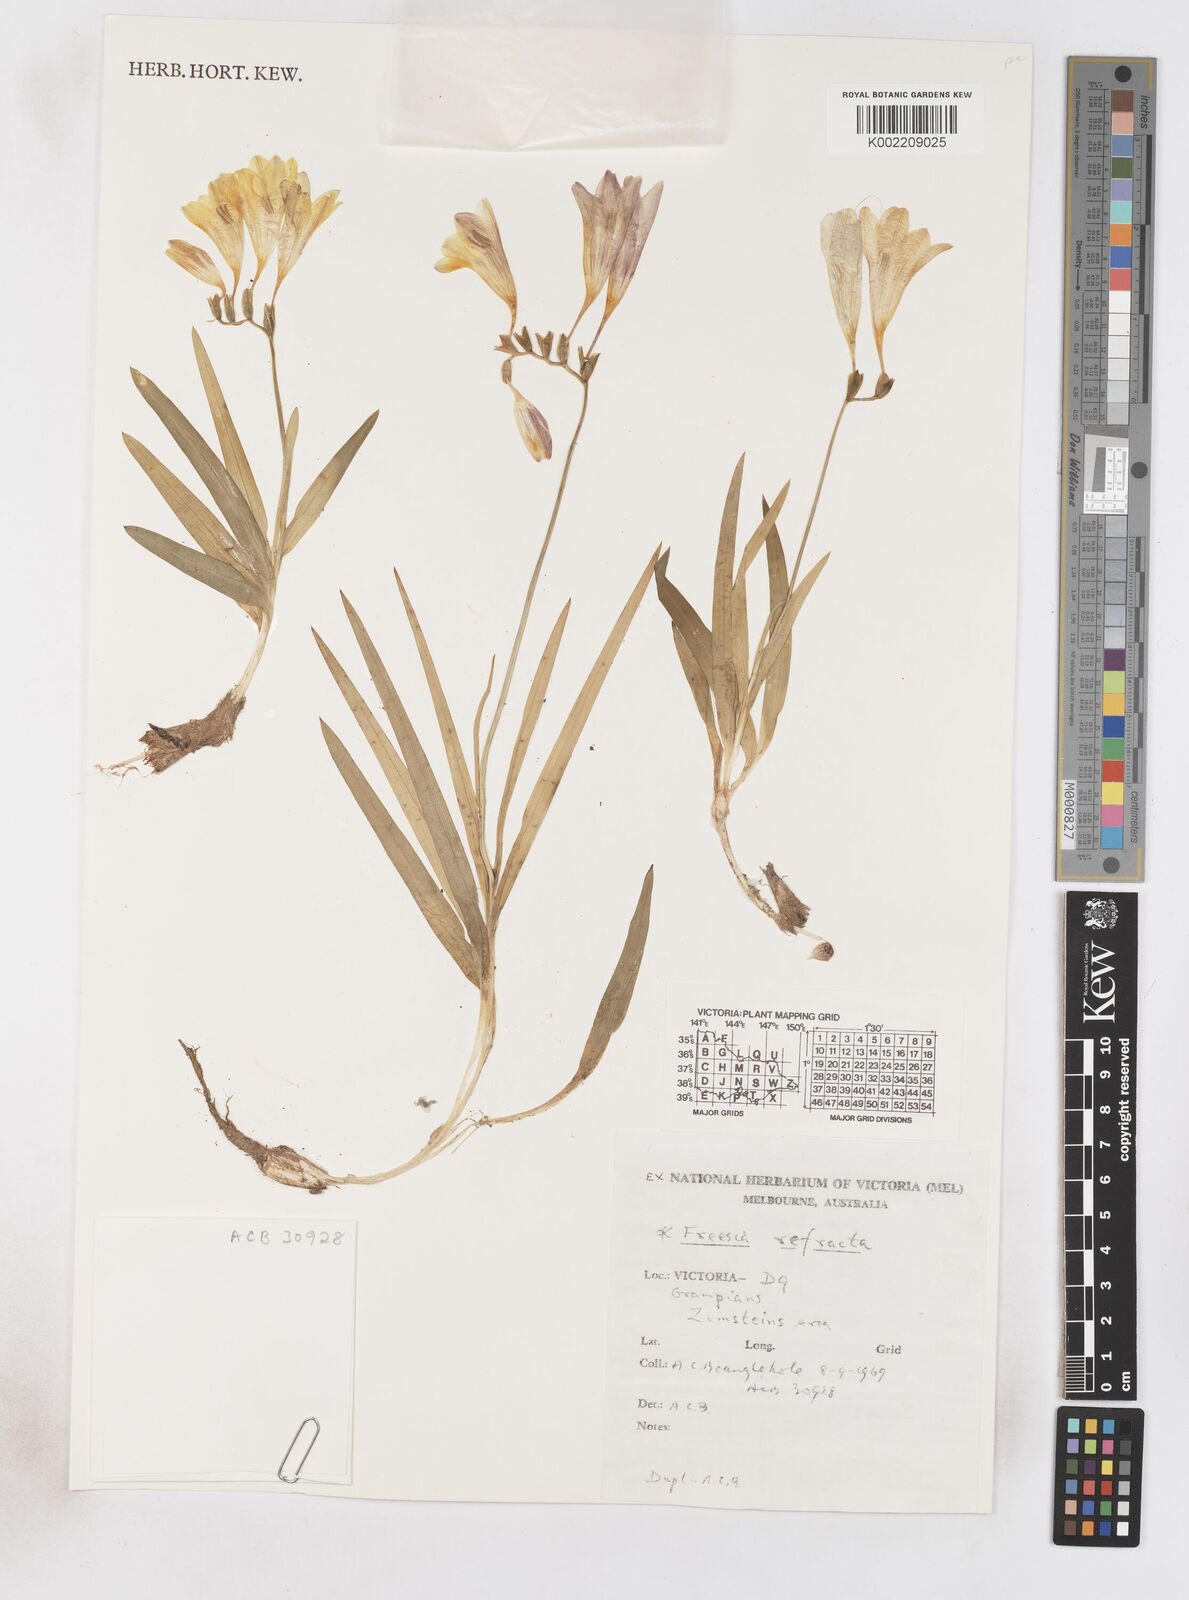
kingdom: Plantae
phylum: Tracheophyta
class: Liliopsida
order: Asparagales
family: Iridaceae
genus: Freesia
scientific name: Freesia refracta
